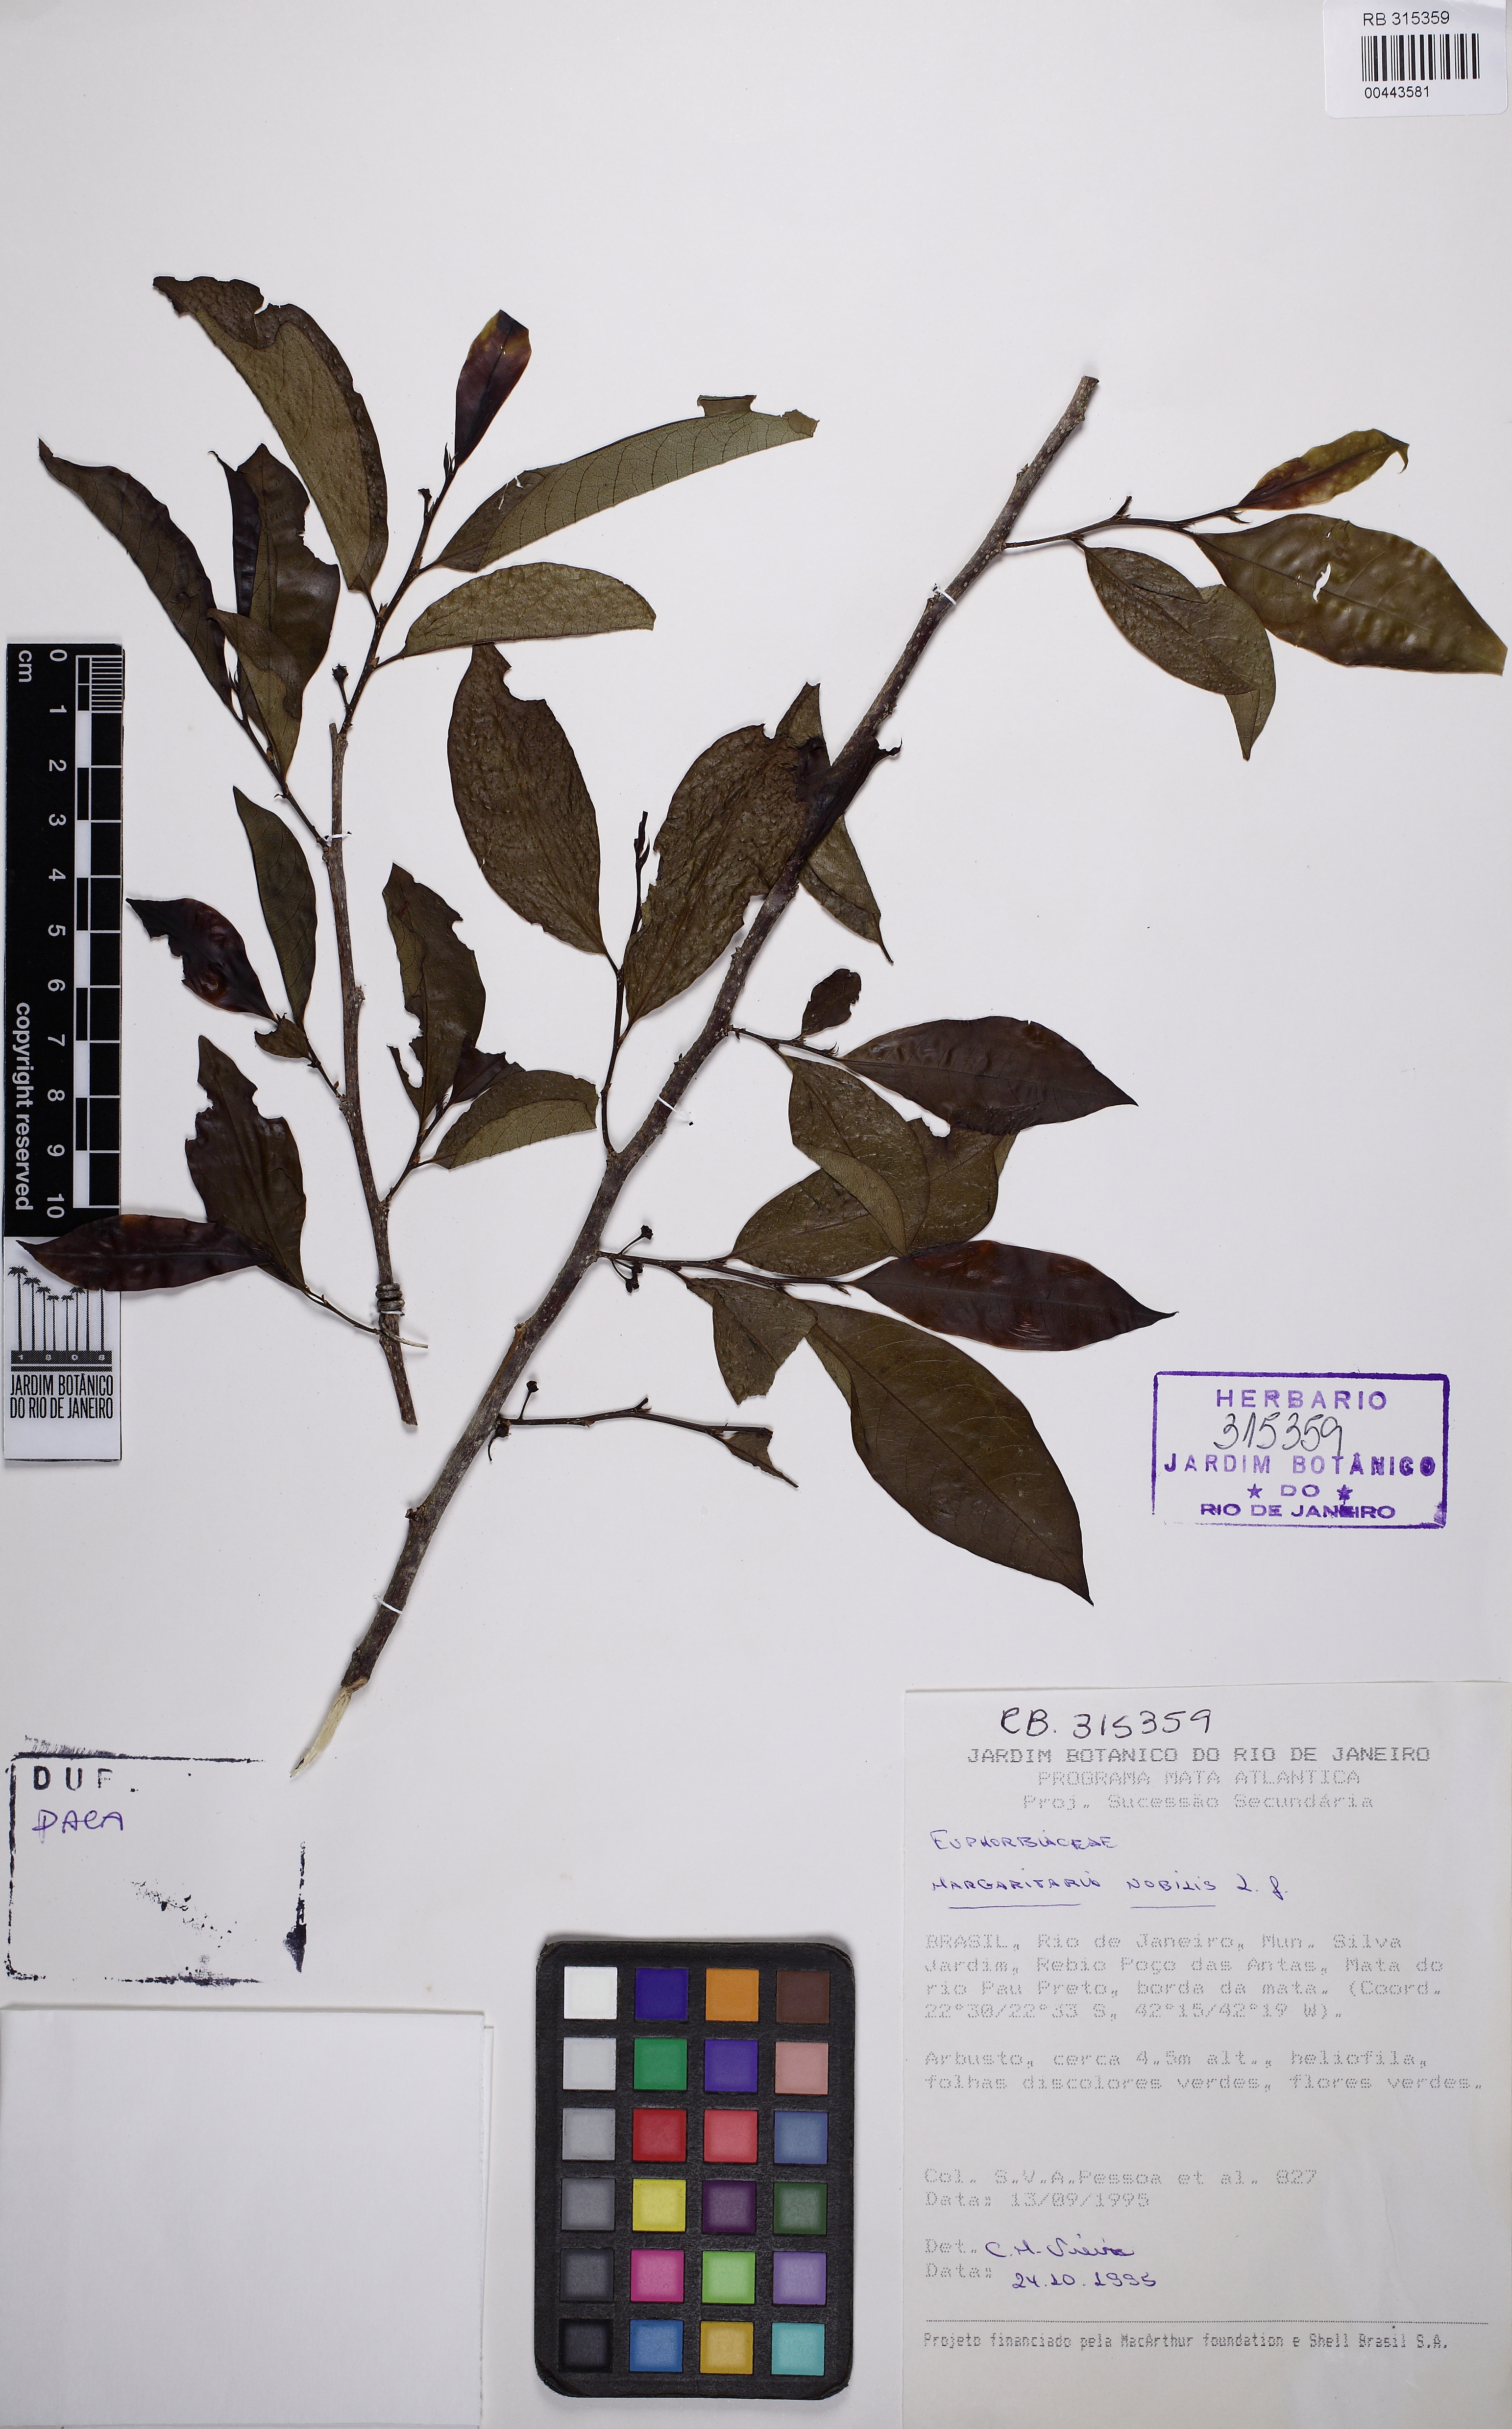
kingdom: Plantae
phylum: Tracheophyta
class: Magnoliopsida
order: Malpighiales
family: Phyllanthaceae
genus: Margaritaria
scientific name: Margaritaria nobilis
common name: Goose berry
